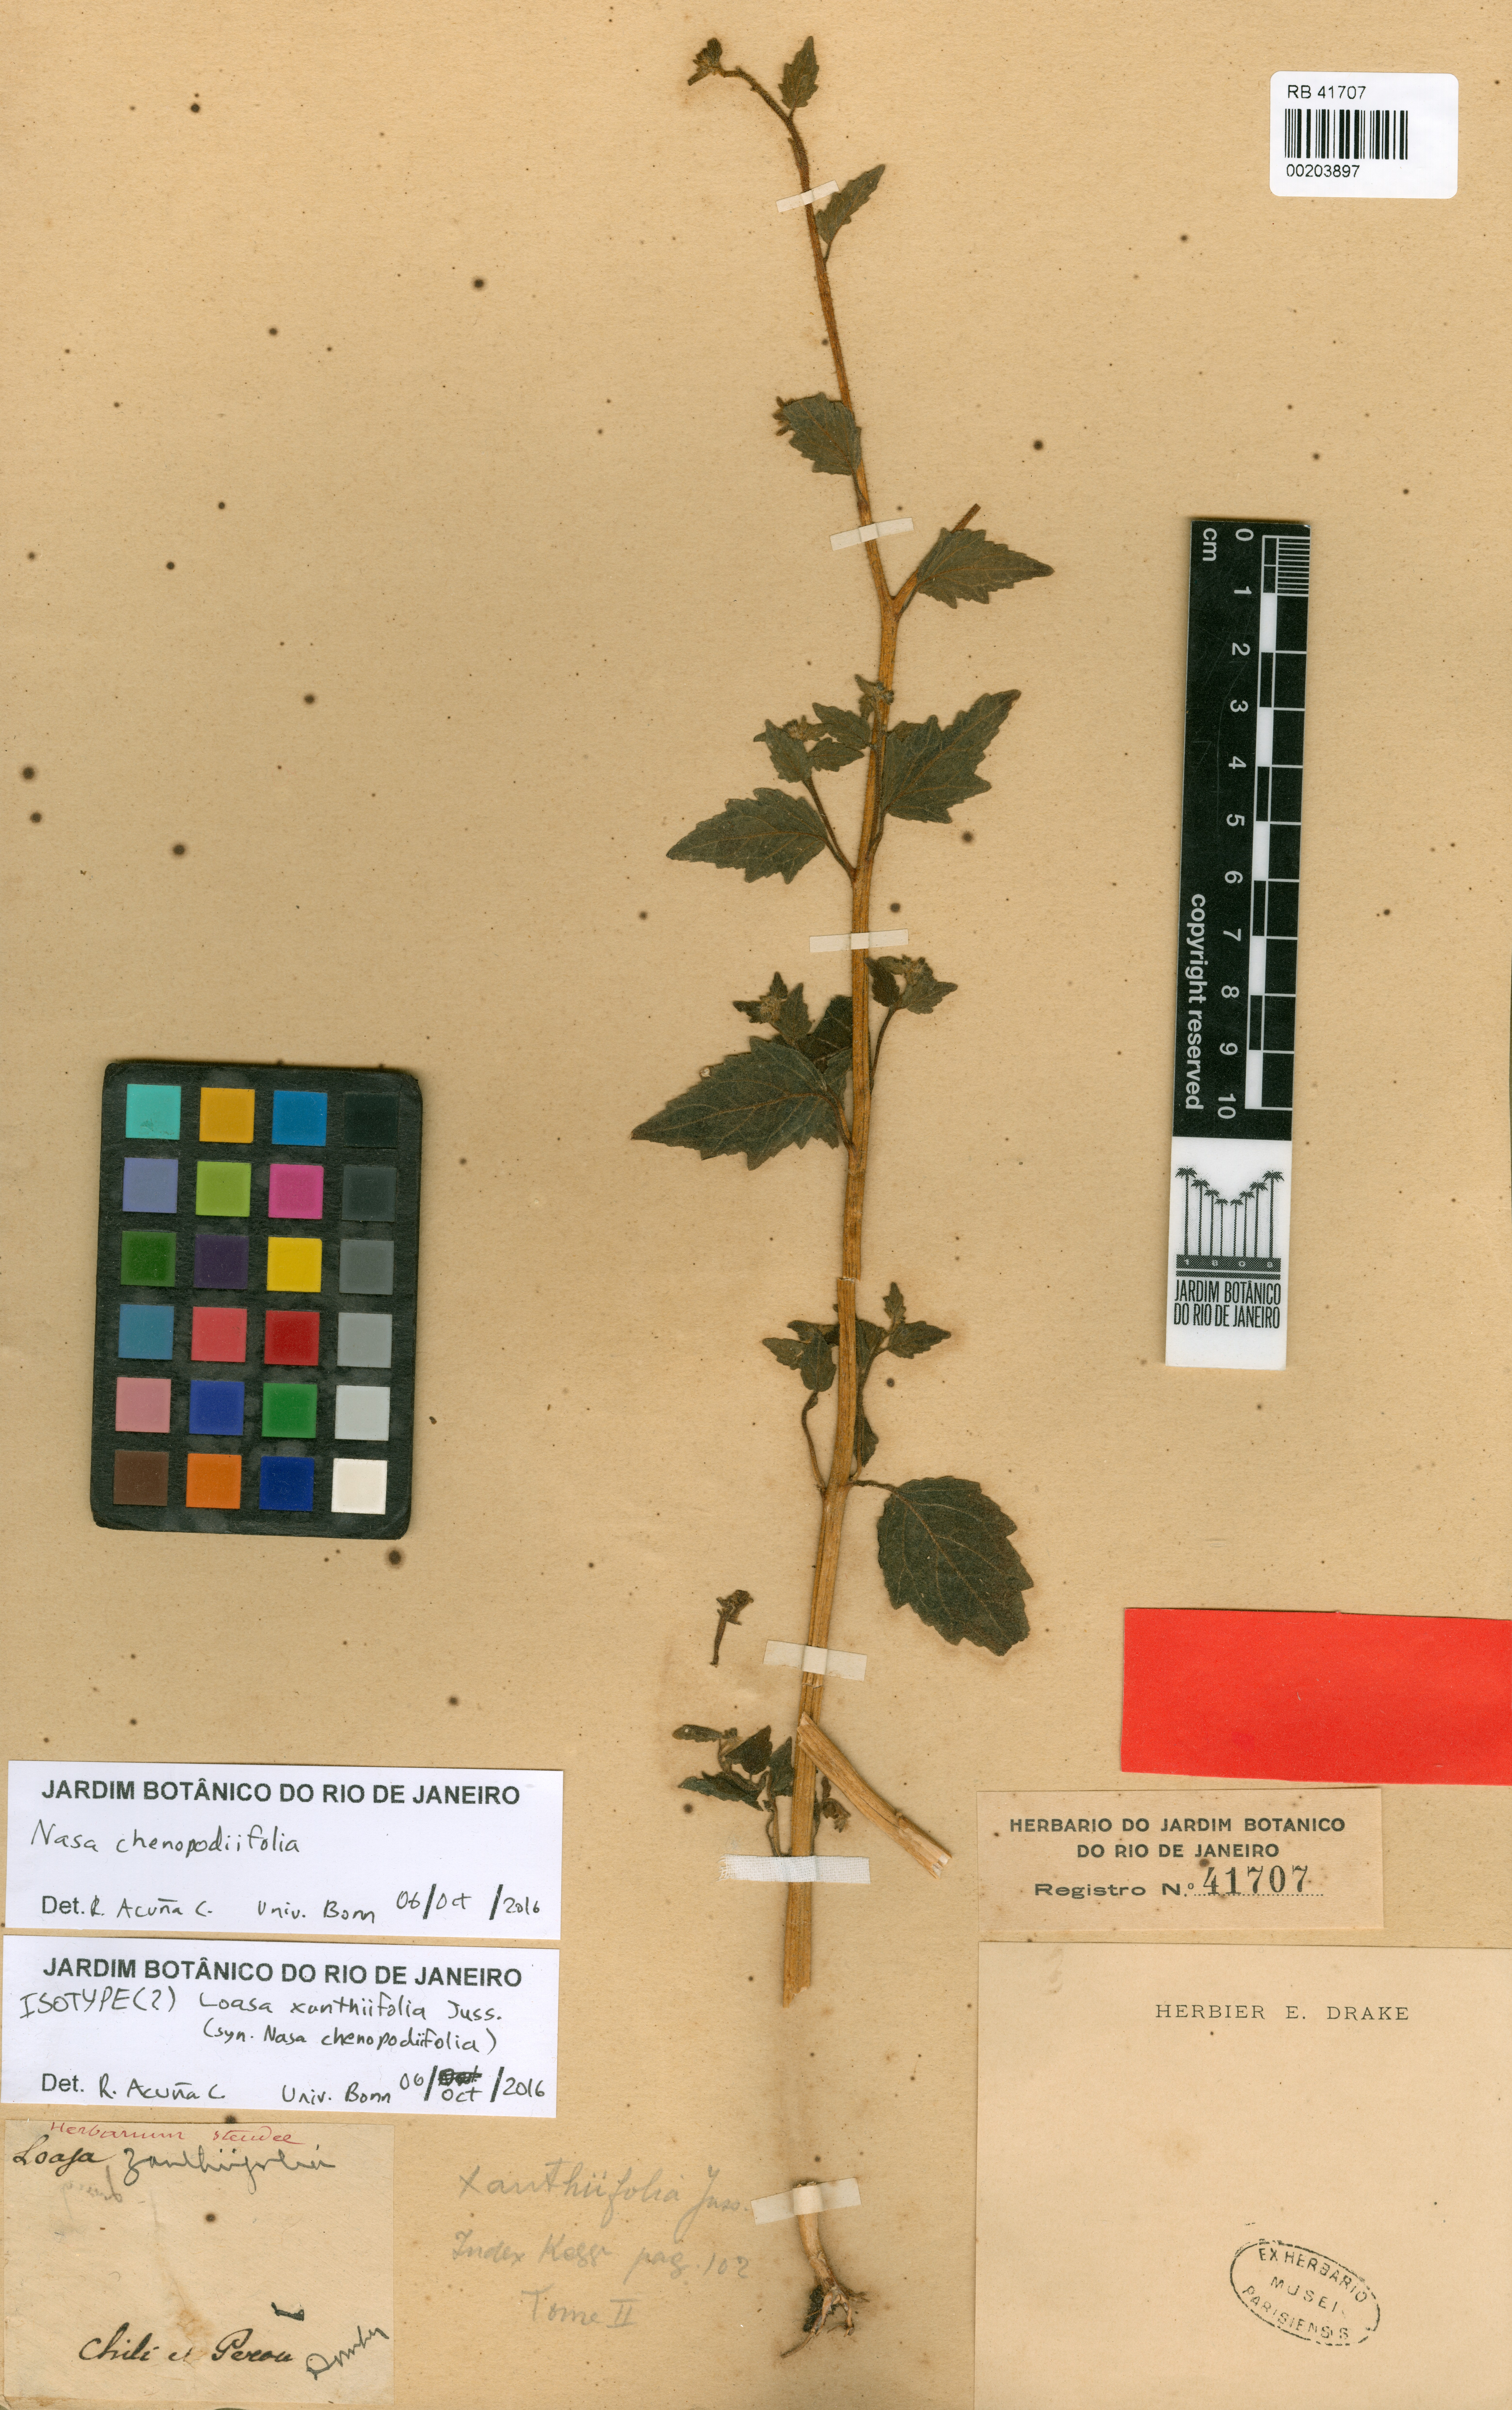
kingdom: Plantae
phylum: Tracheophyta
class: Magnoliopsida
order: Cornales
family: Loasaceae
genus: Nasa
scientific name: Nasa chenopodiifolia
